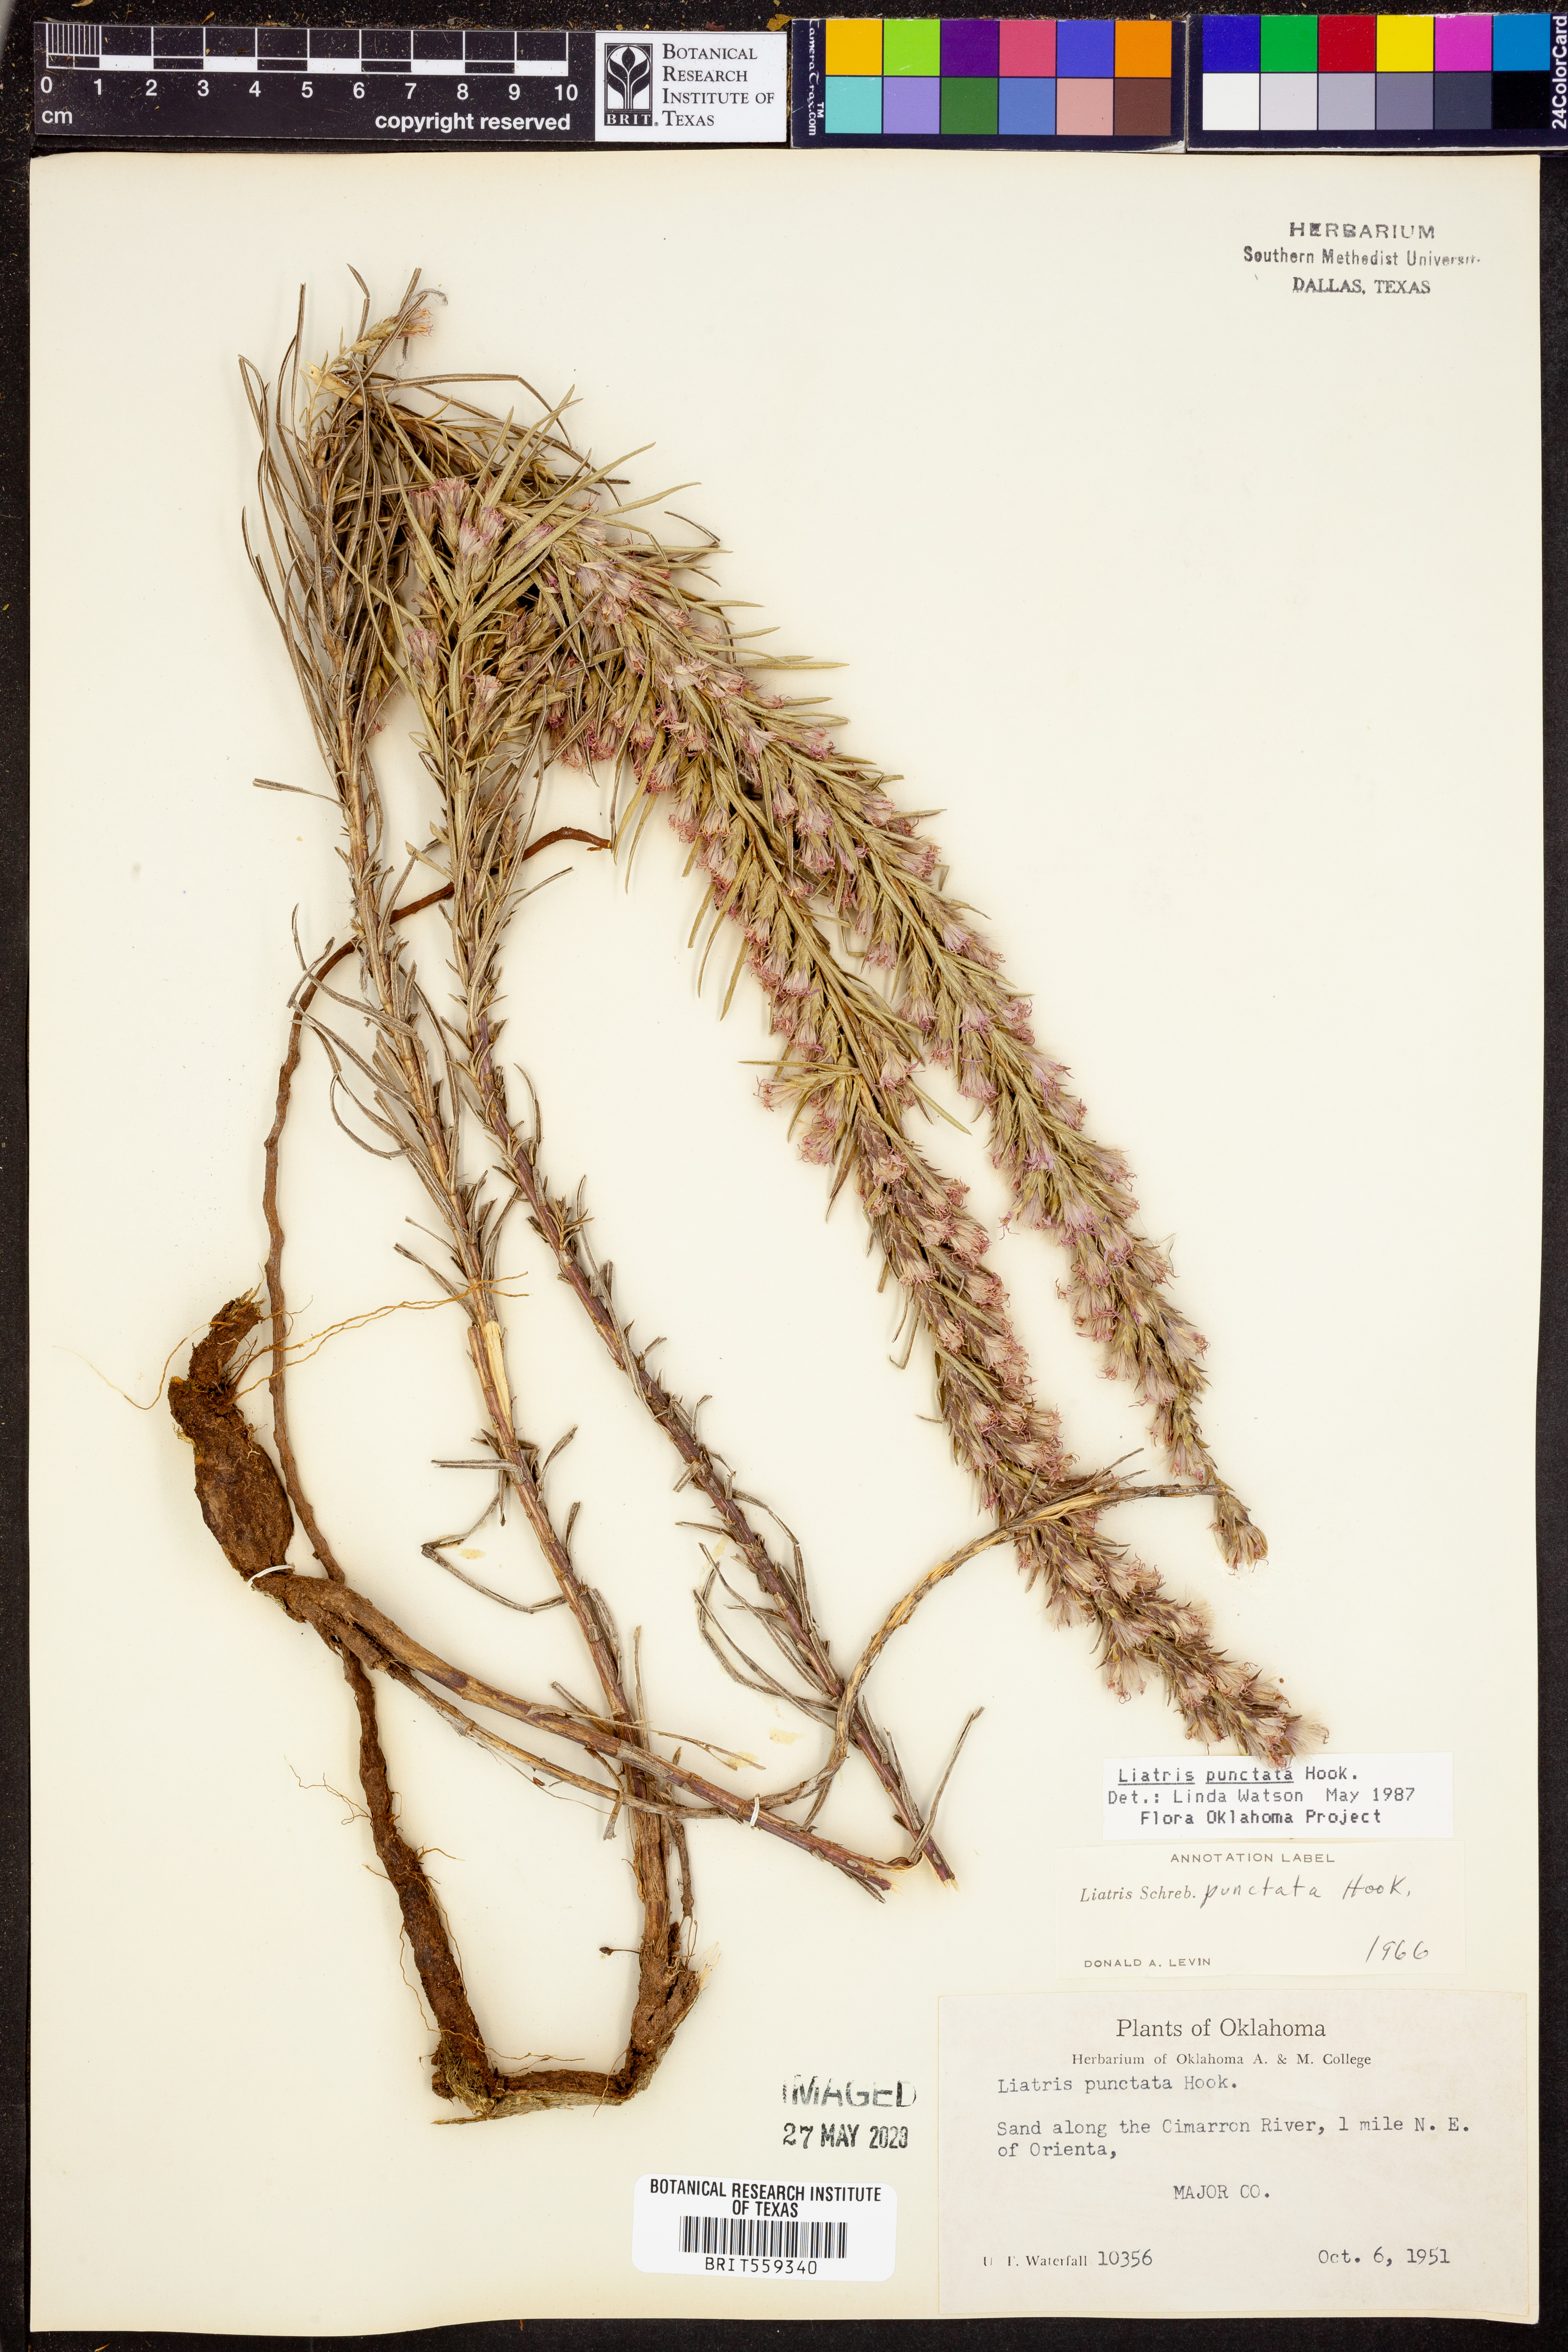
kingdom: Plantae
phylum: Tracheophyta
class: Magnoliopsida
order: Asterales
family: Asteraceae
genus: Liatris
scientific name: Liatris punctata
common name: Dotted gayfeather
